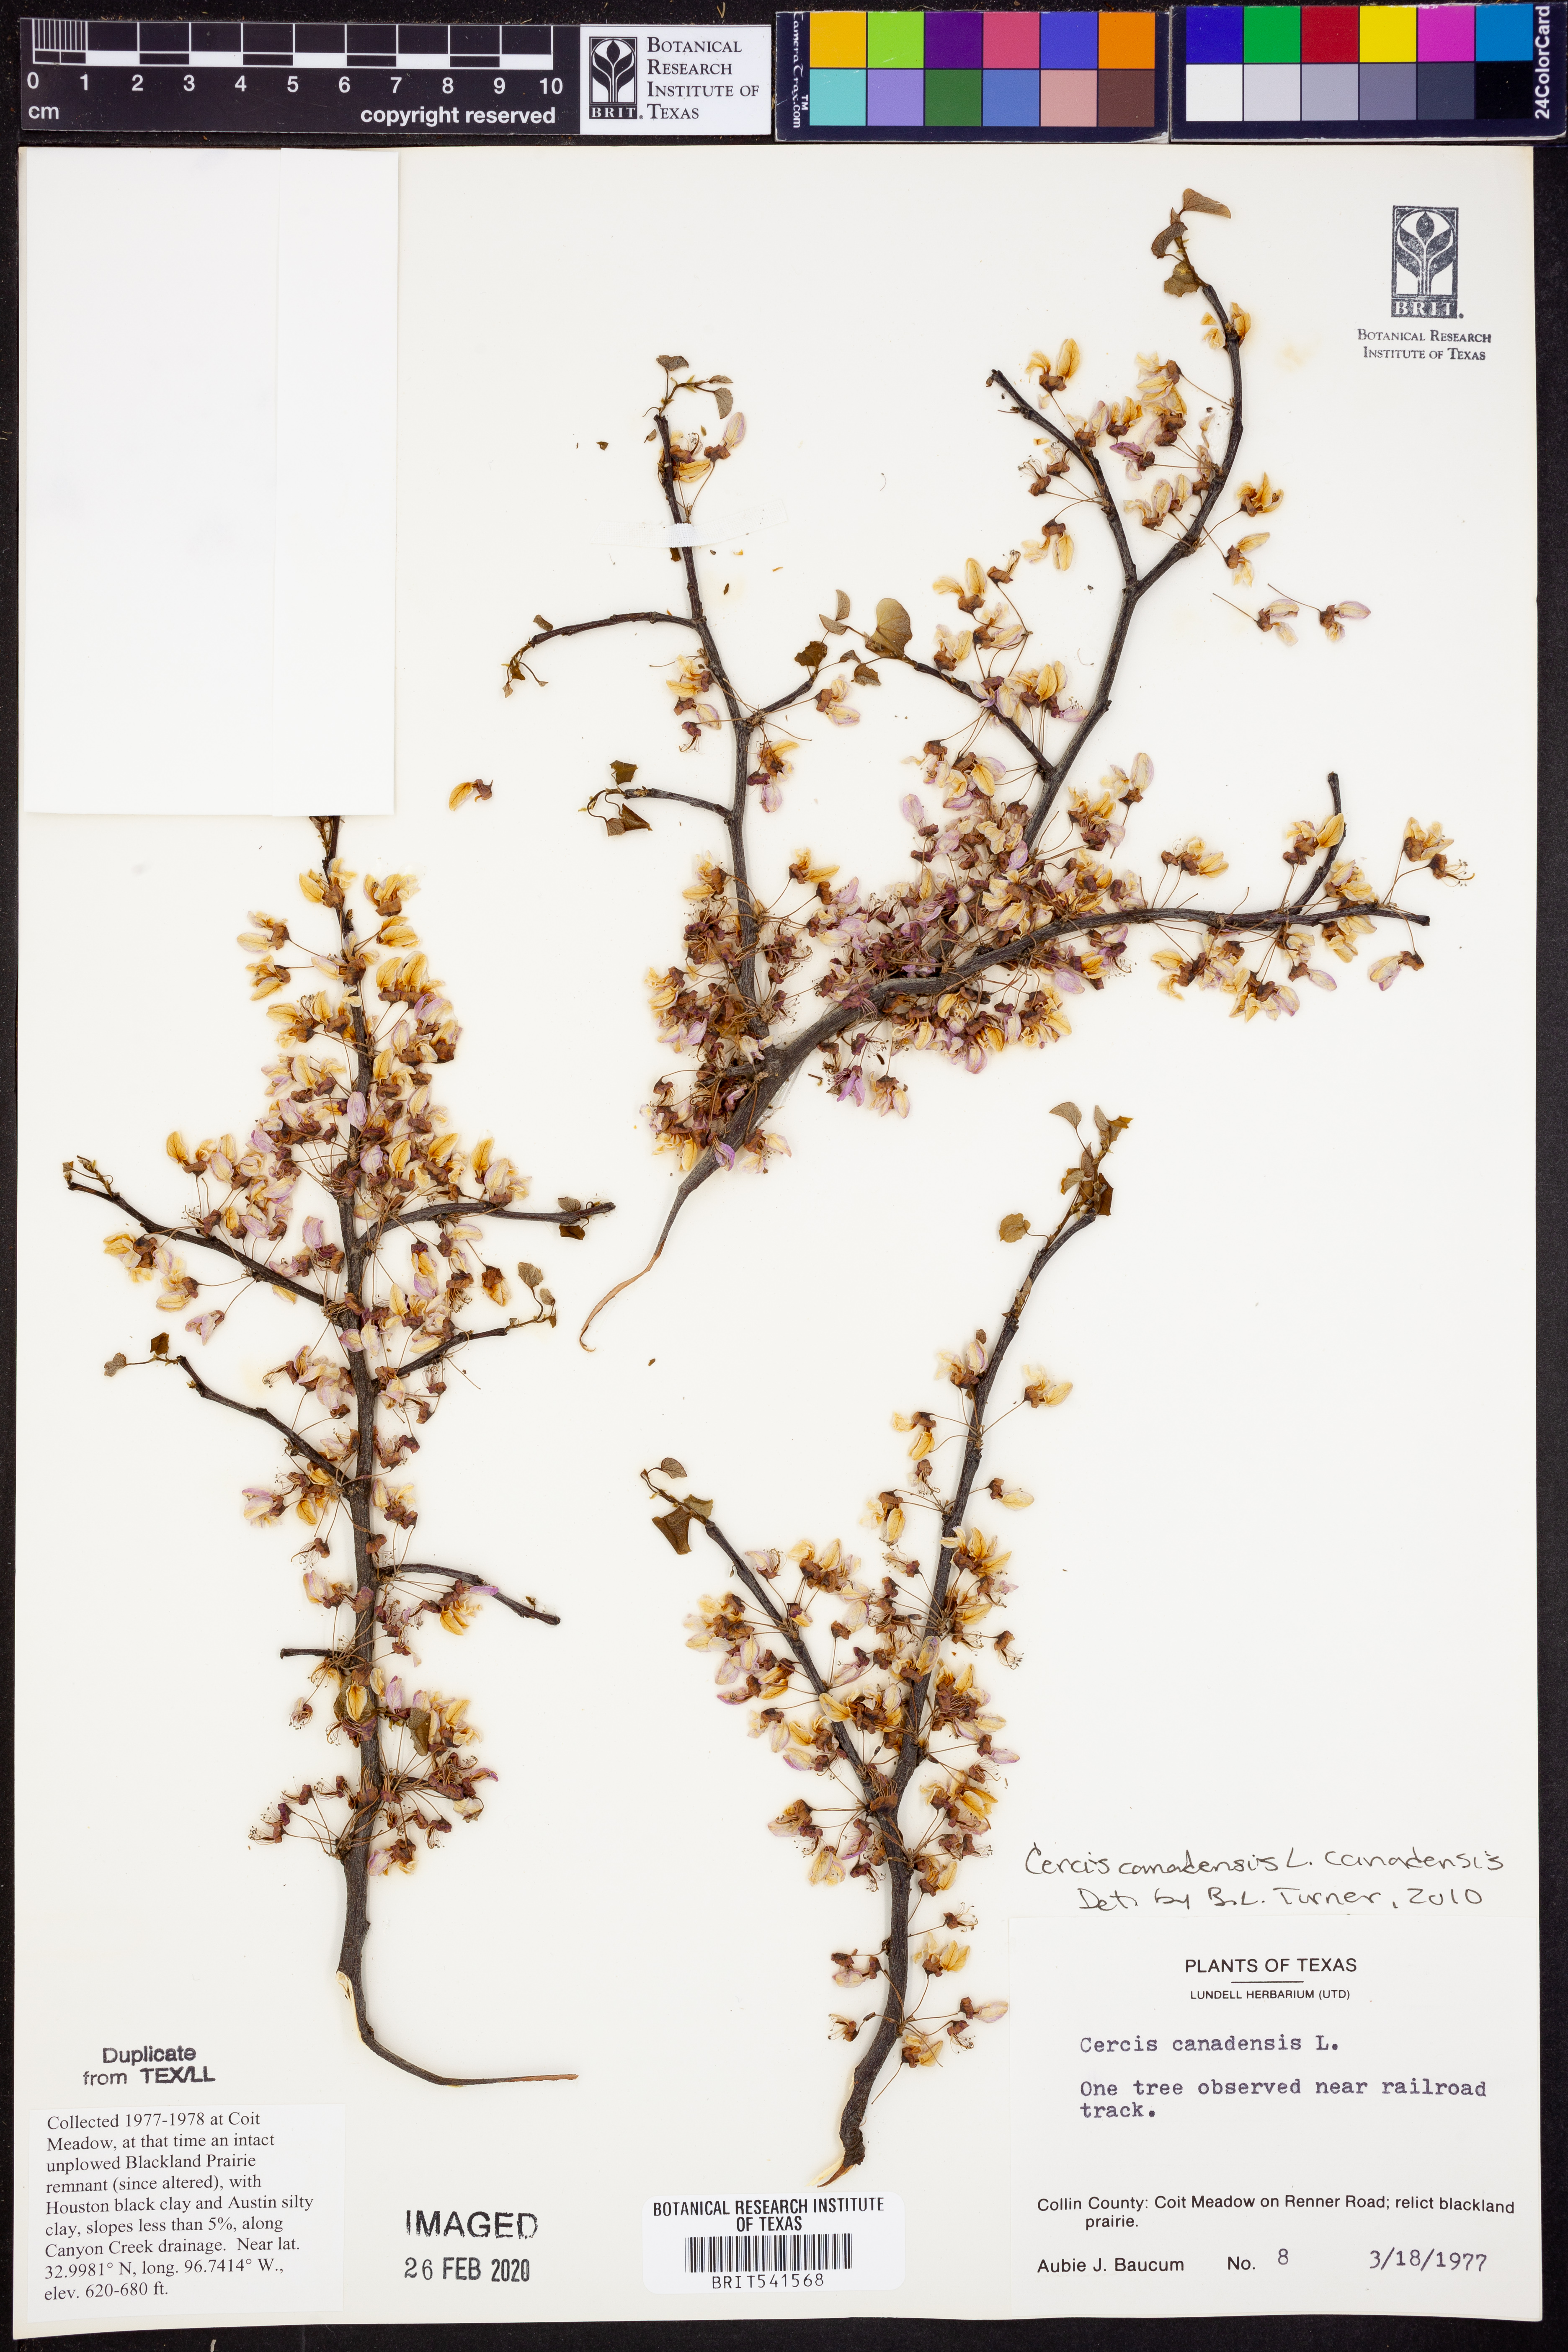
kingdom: Plantae
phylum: Tracheophyta
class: Magnoliopsida
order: Fabales
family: Fabaceae
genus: Cercis
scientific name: Cercis canadensis
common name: Eastern redbud
